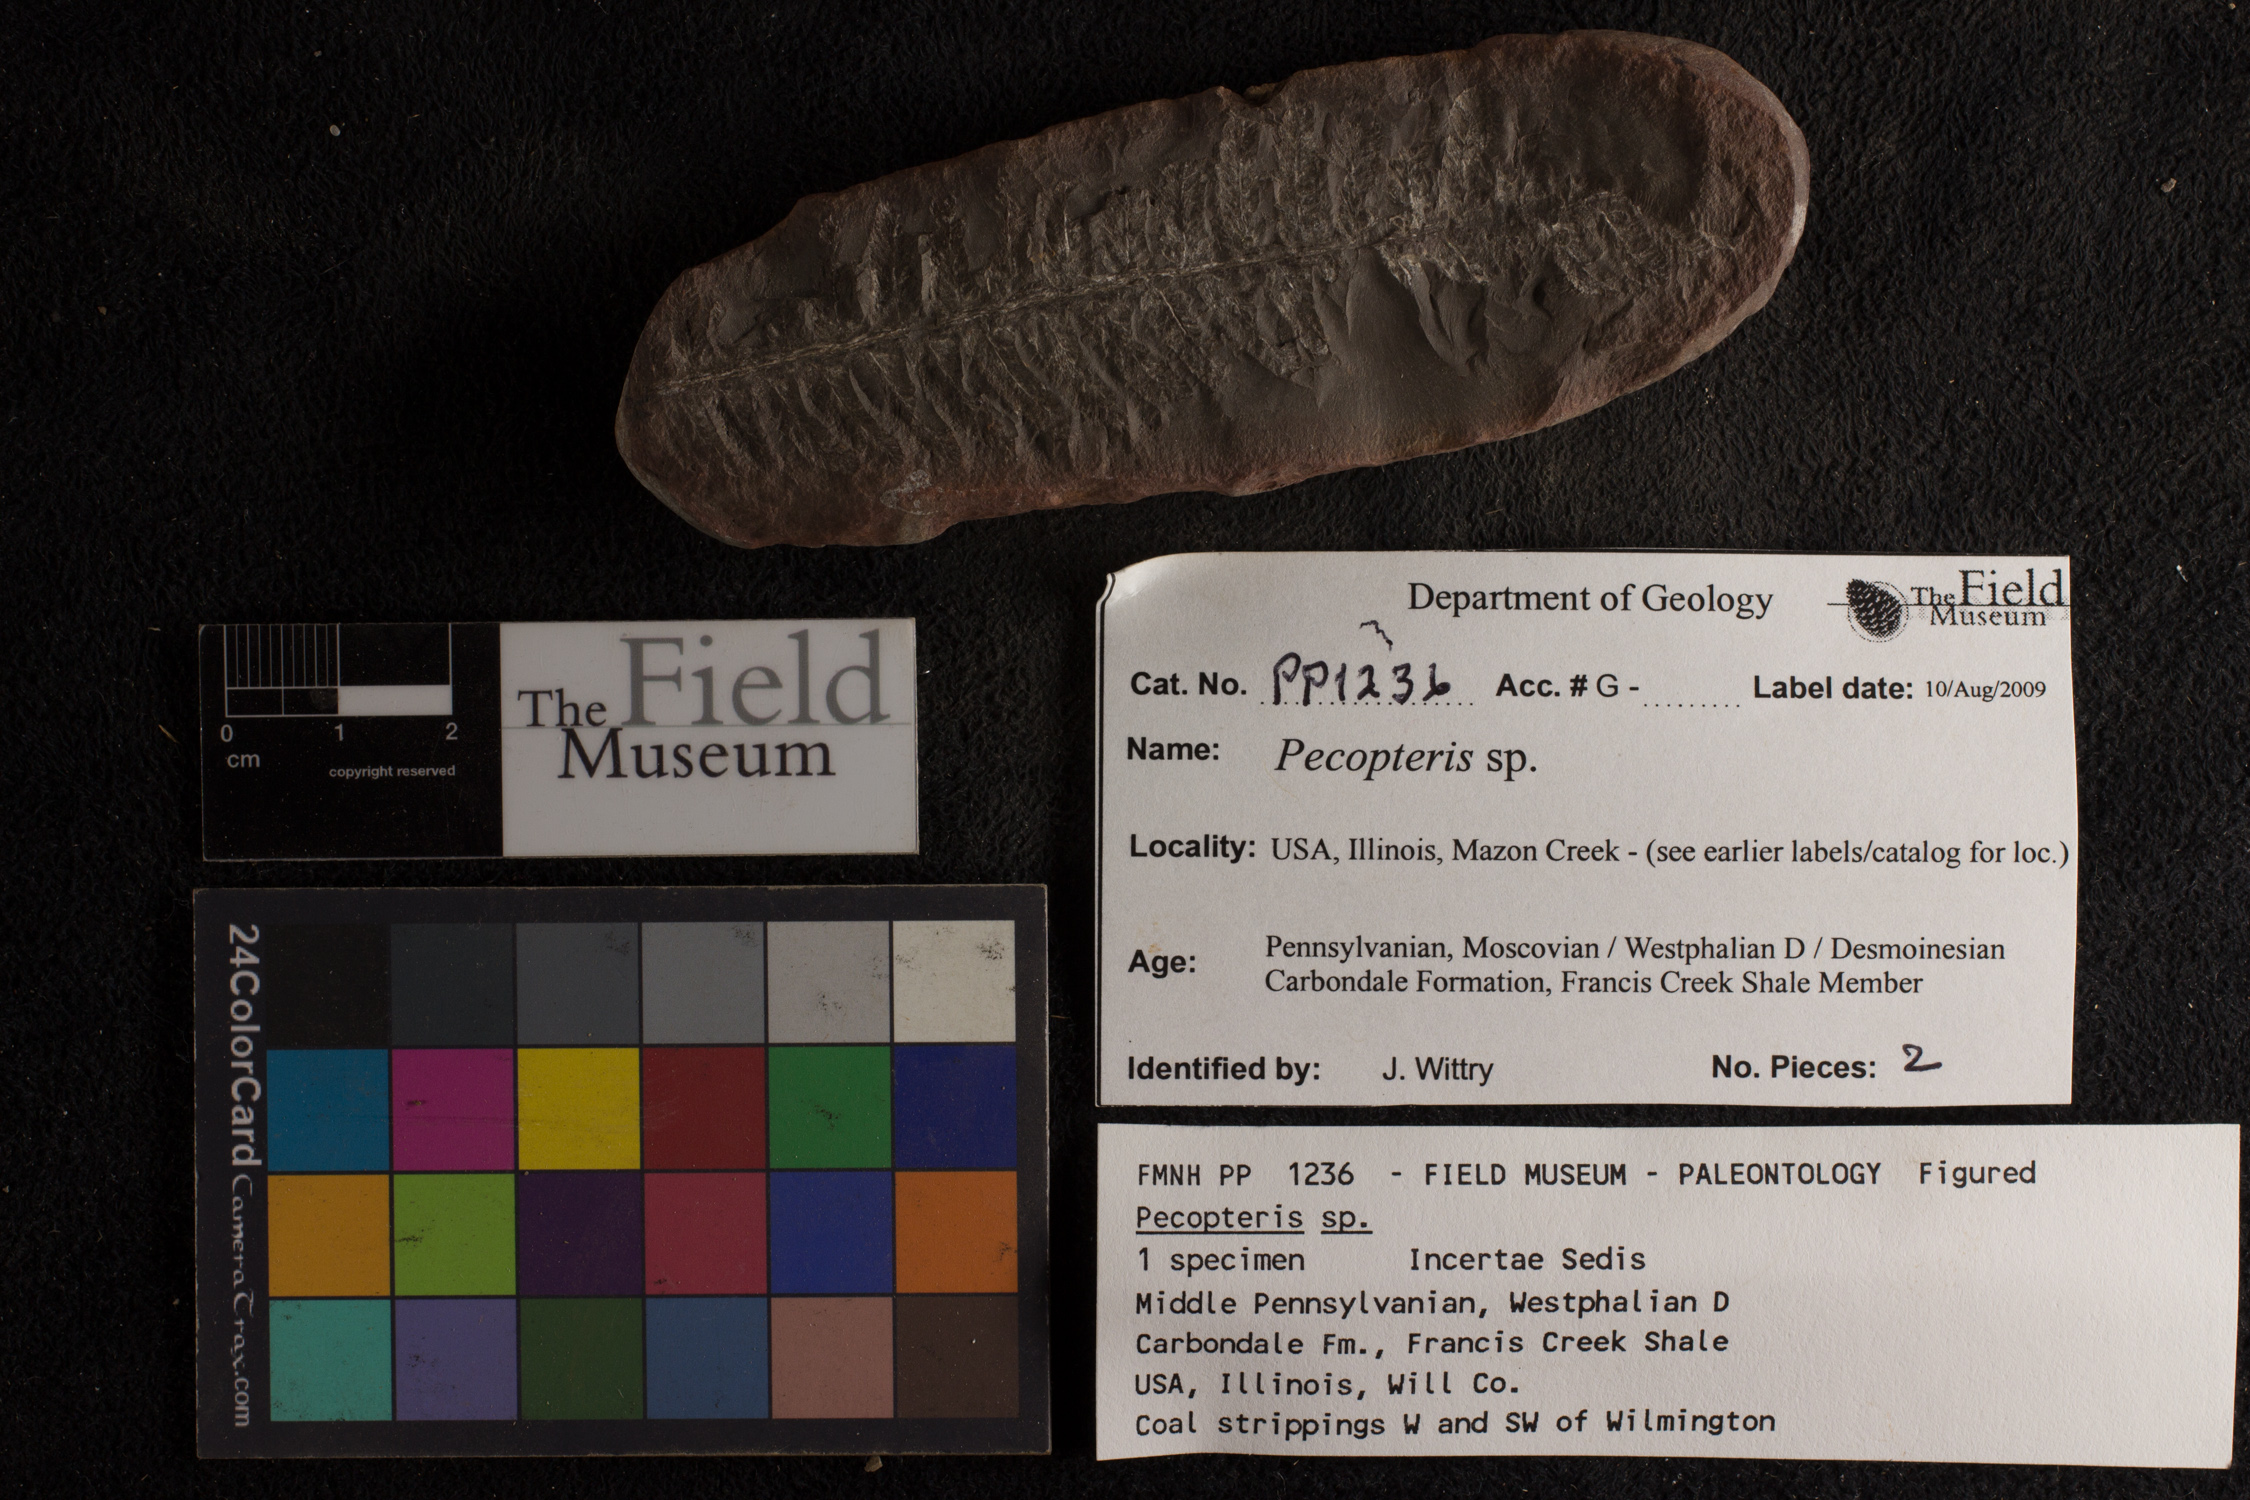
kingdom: Plantae
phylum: Tracheophyta
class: Polypodiopsida
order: Marattiales
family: Asterothecaceae
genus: Pecopteris
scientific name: Pecopteris
